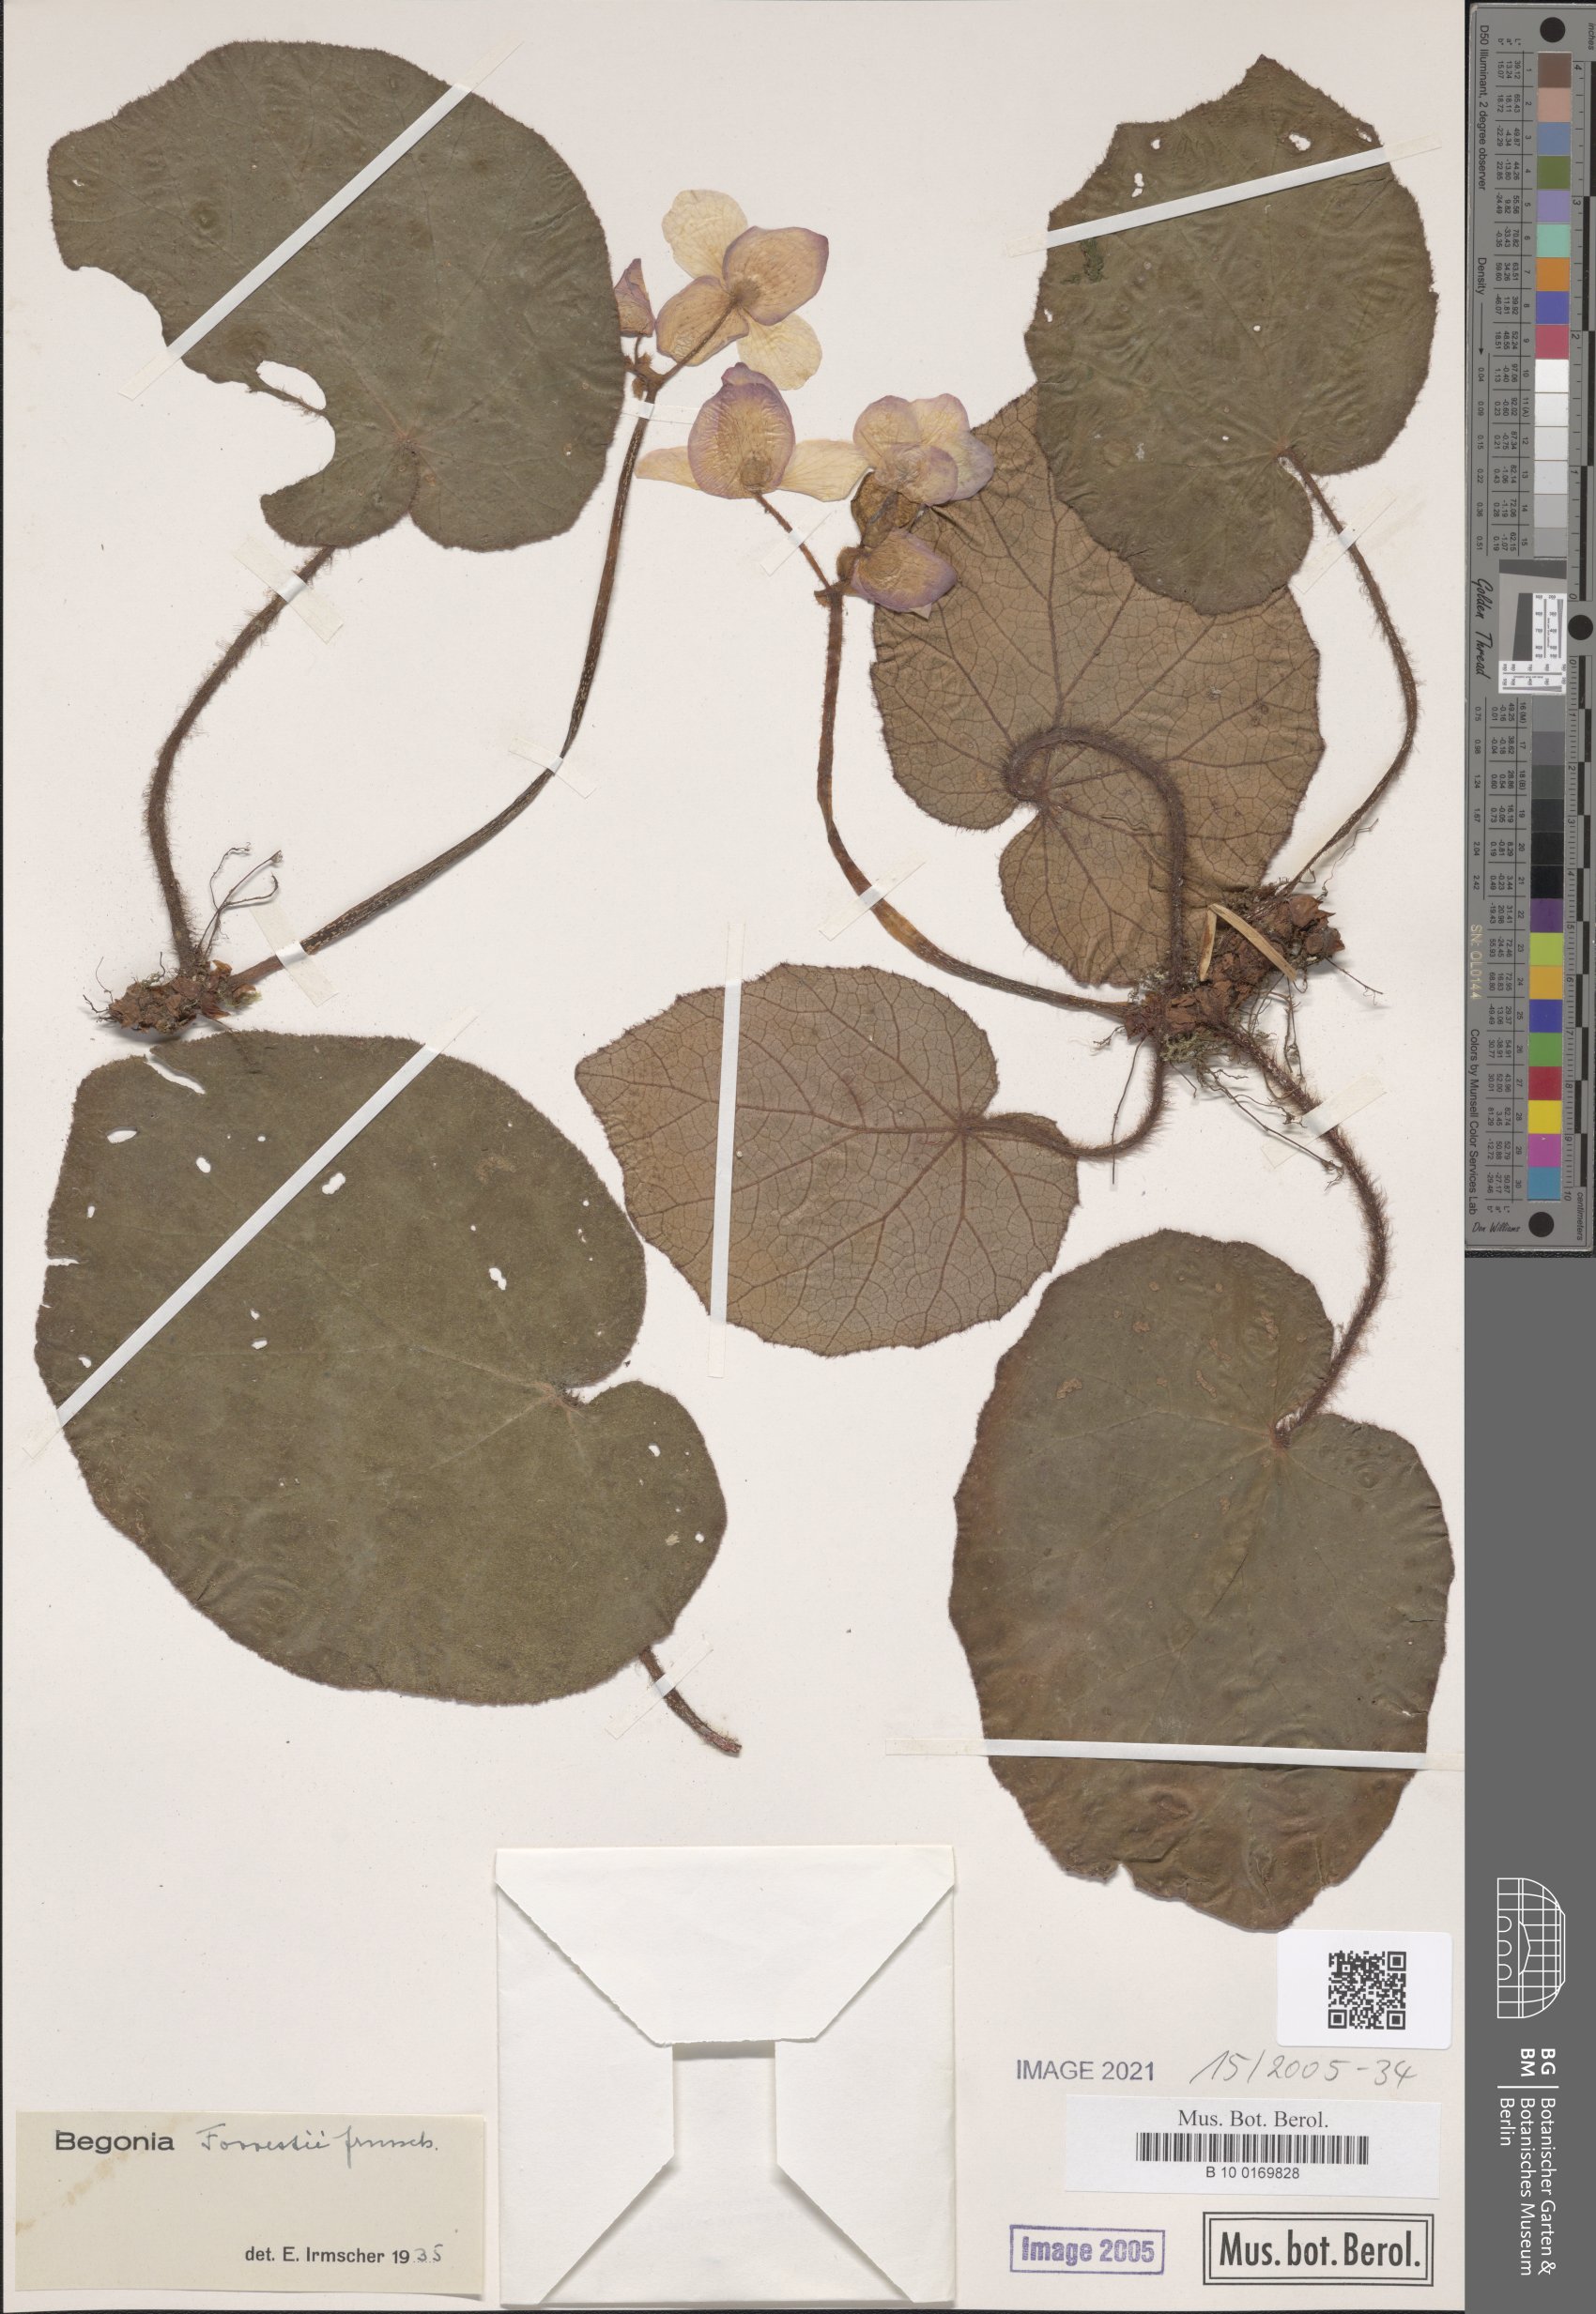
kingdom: Plantae
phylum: Tracheophyta
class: Magnoliopsida
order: Cucurbitales
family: Begoniaceae
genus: Begonia
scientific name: Begonia forrestii
